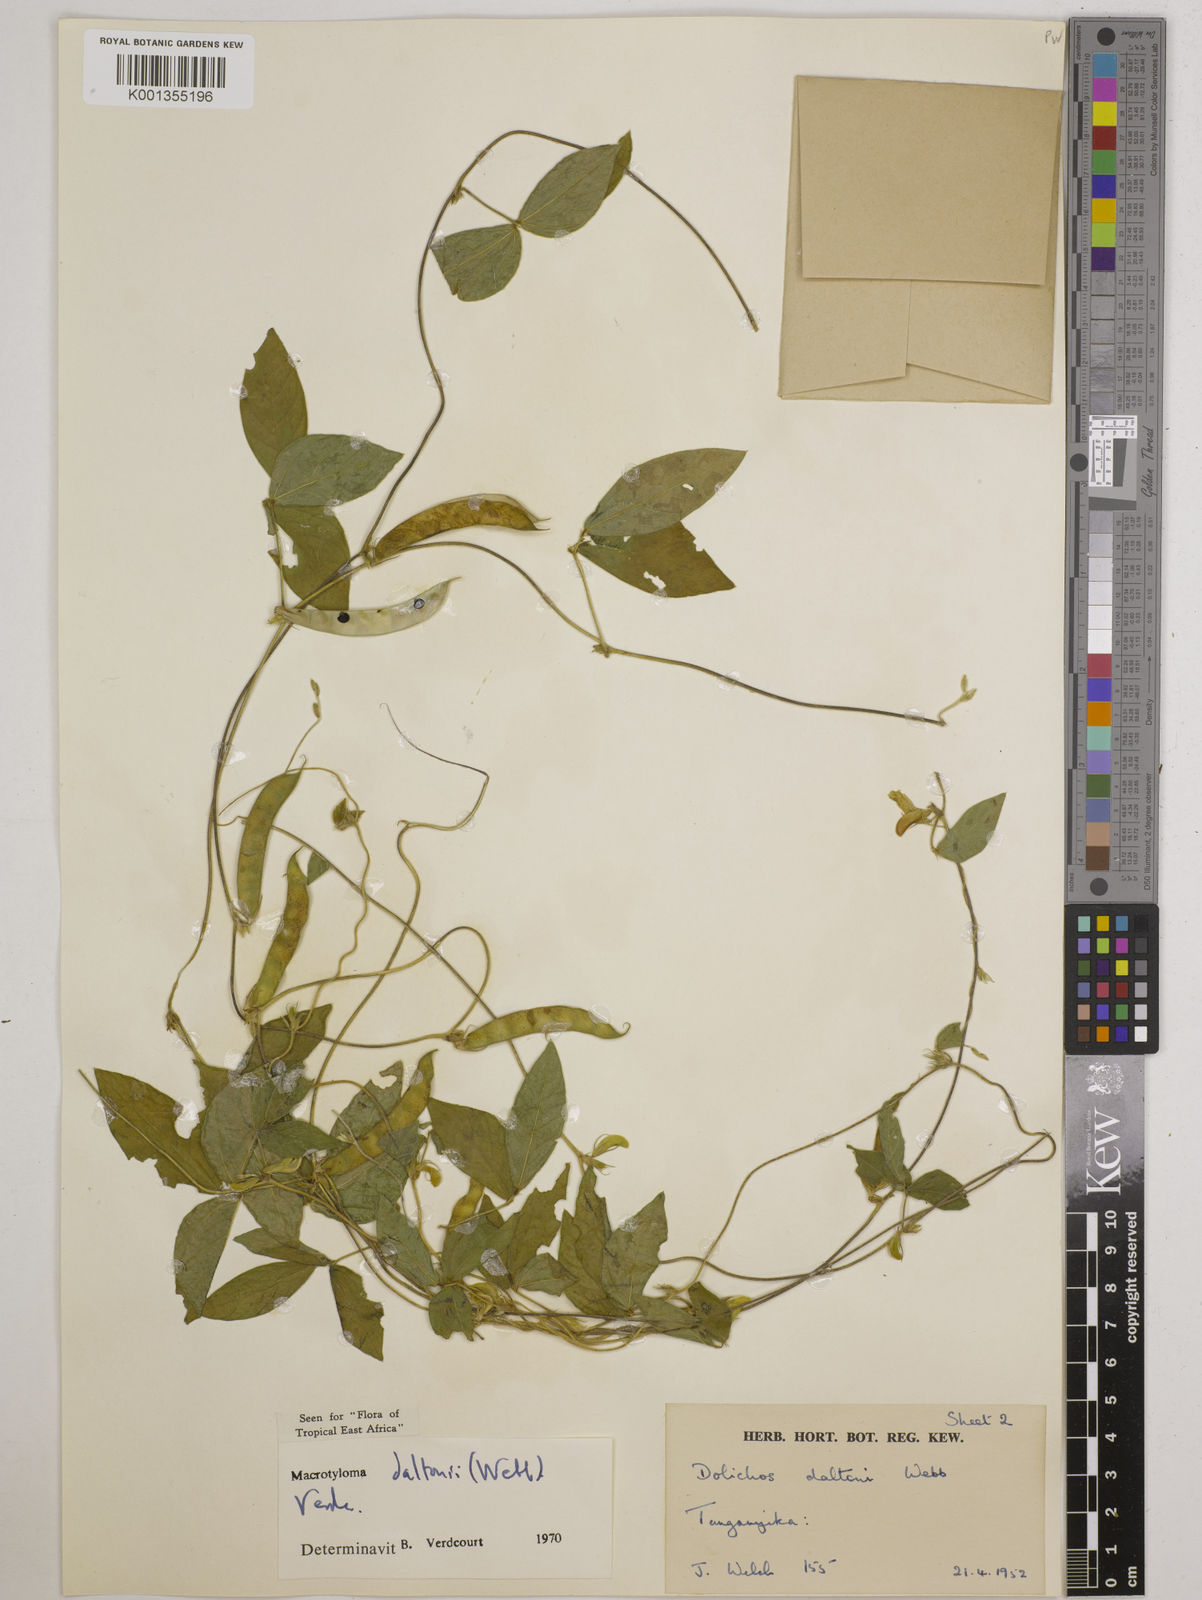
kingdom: Plantae
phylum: Tracheophyta
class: Magnoliopsida
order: Fabales
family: Fabaceae
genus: Macrotyloma
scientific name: Macrotyloma daltonii
